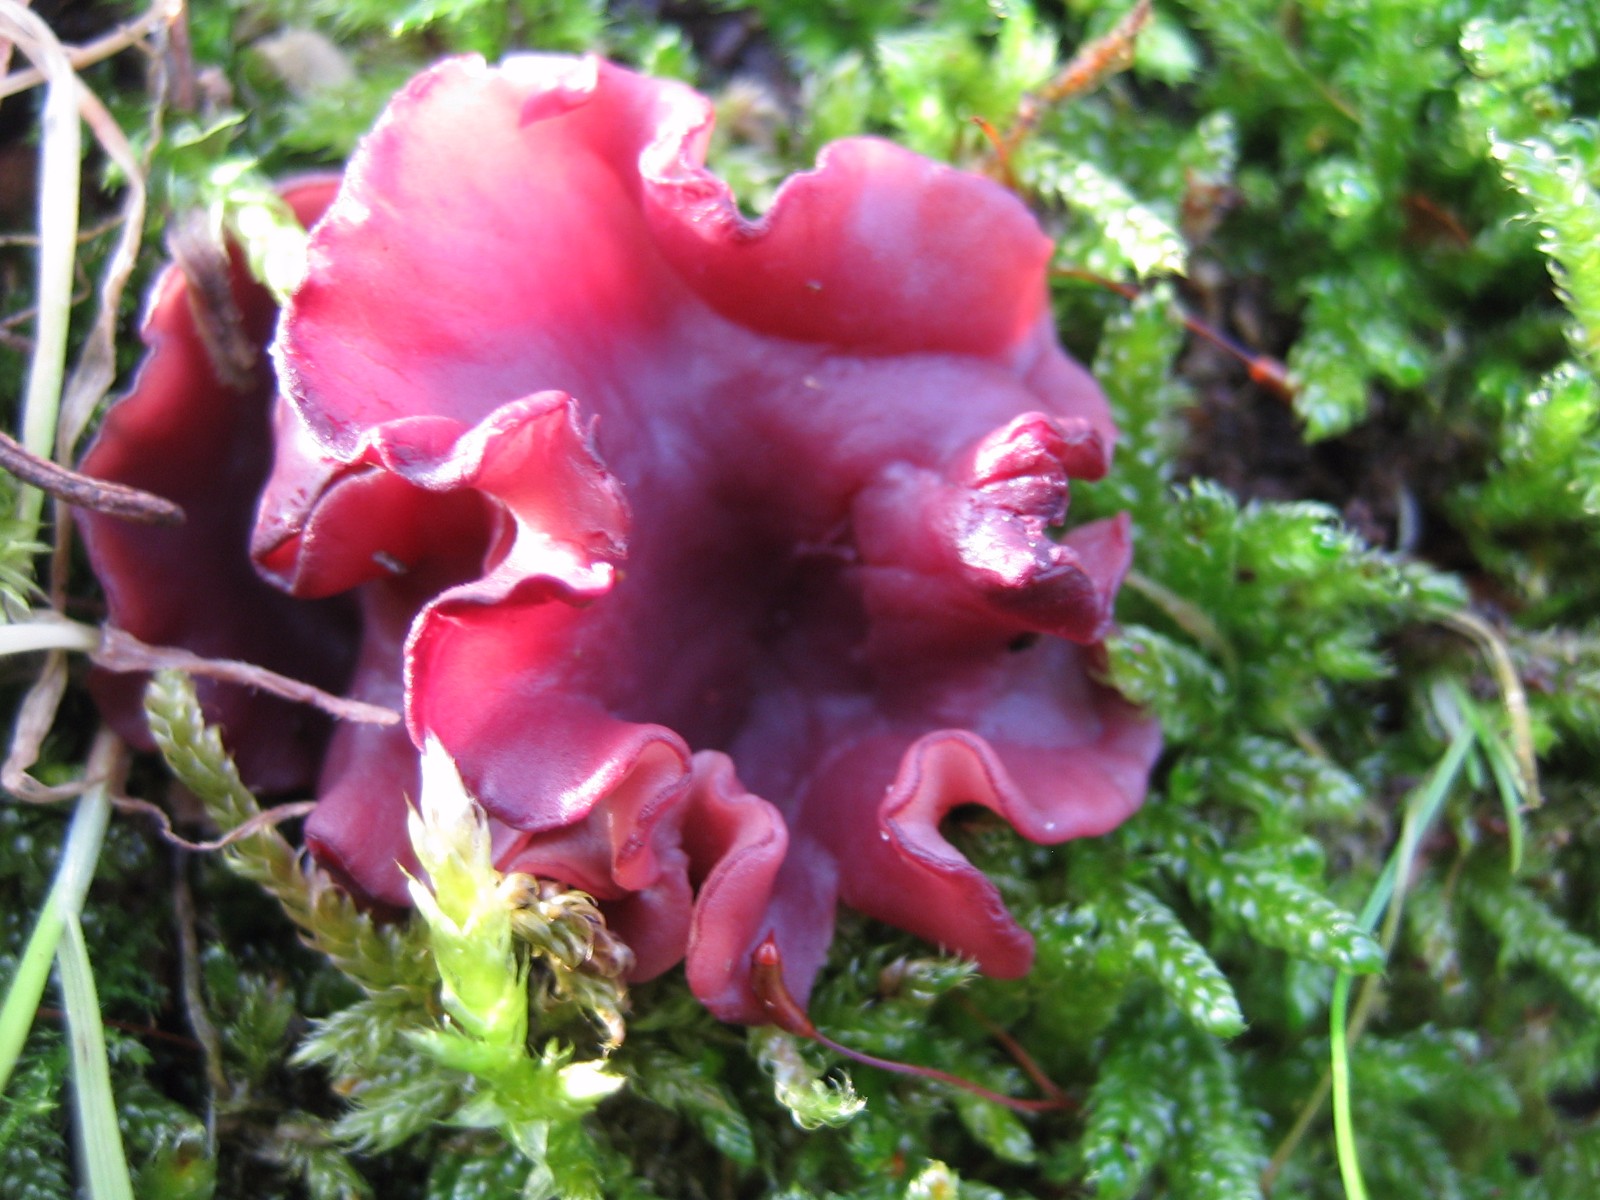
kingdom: Fungi
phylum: Ascomycota
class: Leotiomycetes
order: Helotiales
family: Gelatinodiscaceae
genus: Ascocoryne
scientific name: Ascocoryne cylichnium
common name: stor sejskive
